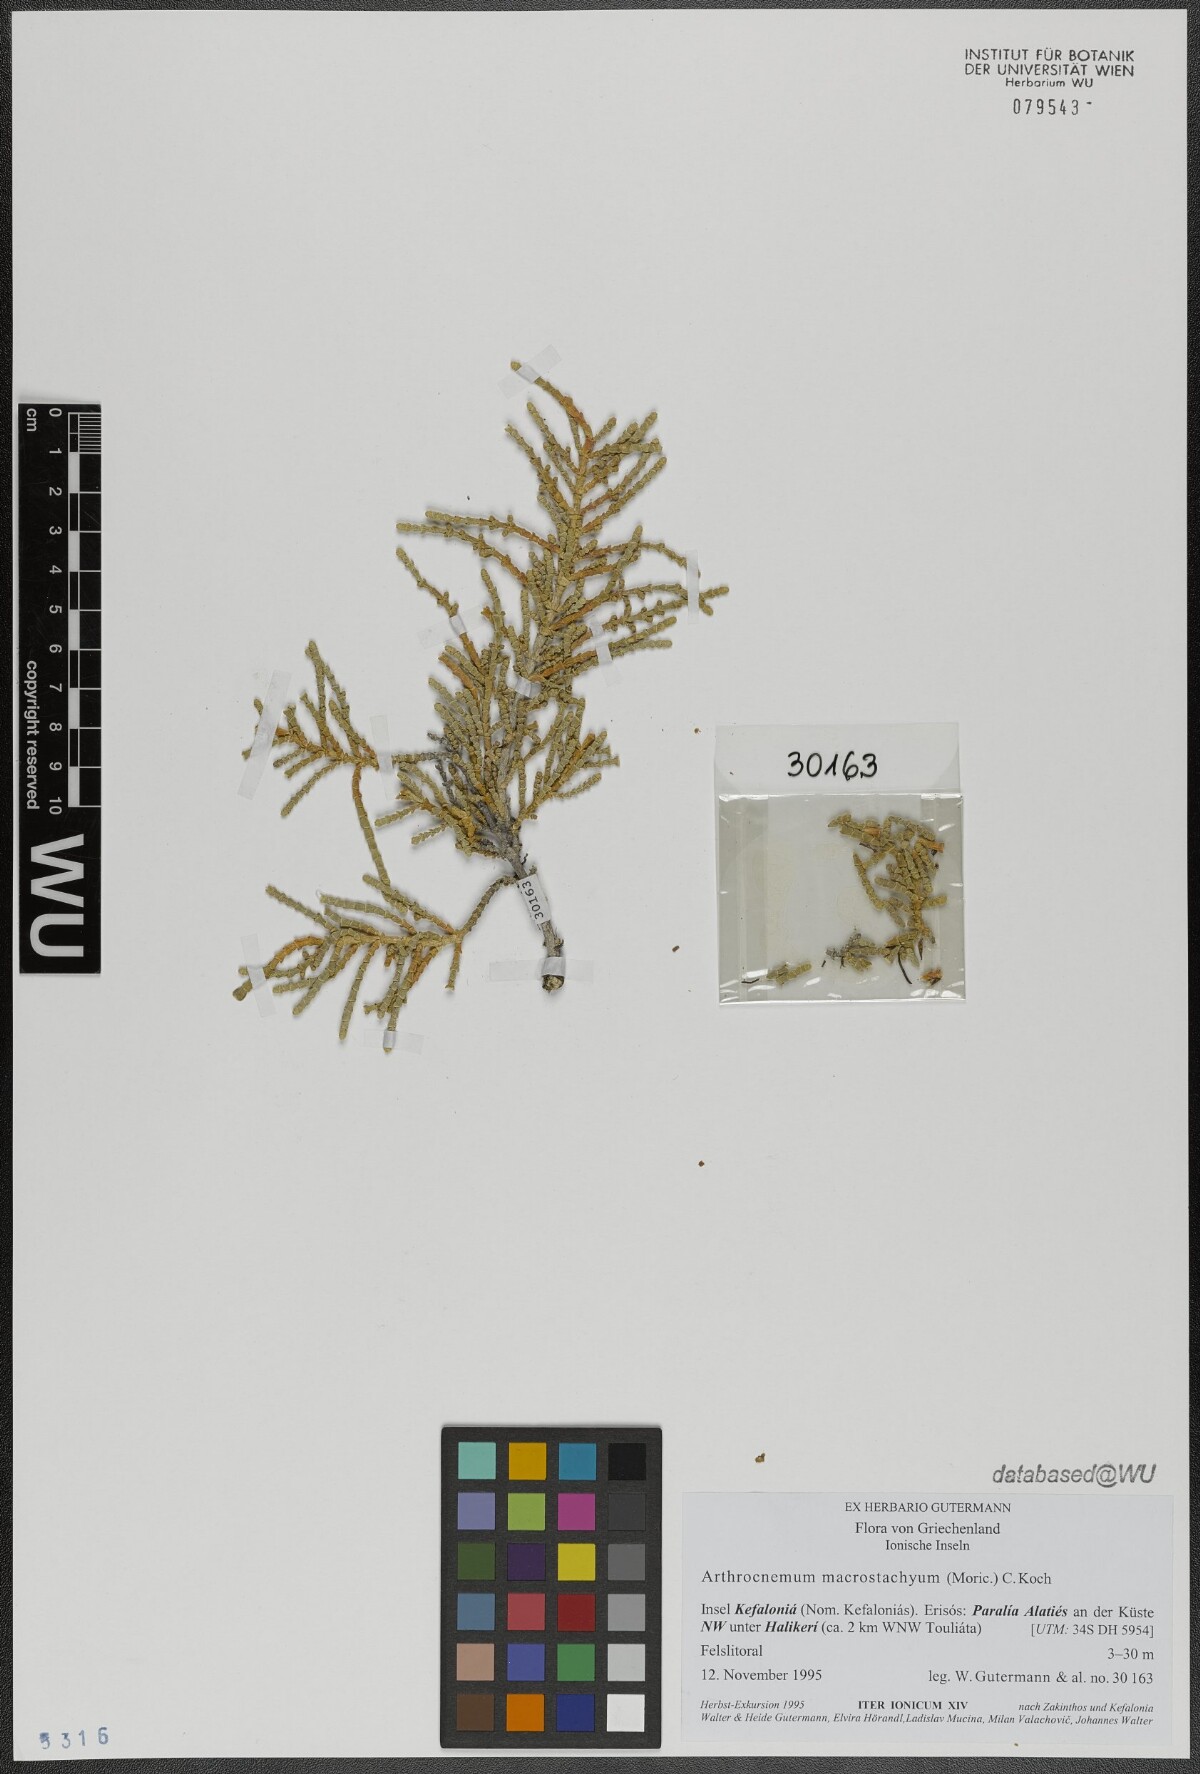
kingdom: Plantae
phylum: Tracheophyta
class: Magnoliopsida
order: Caryophyllales
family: Amaranthaceae
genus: Arthrocaulon
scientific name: Arthrocaulon macrostachyum
